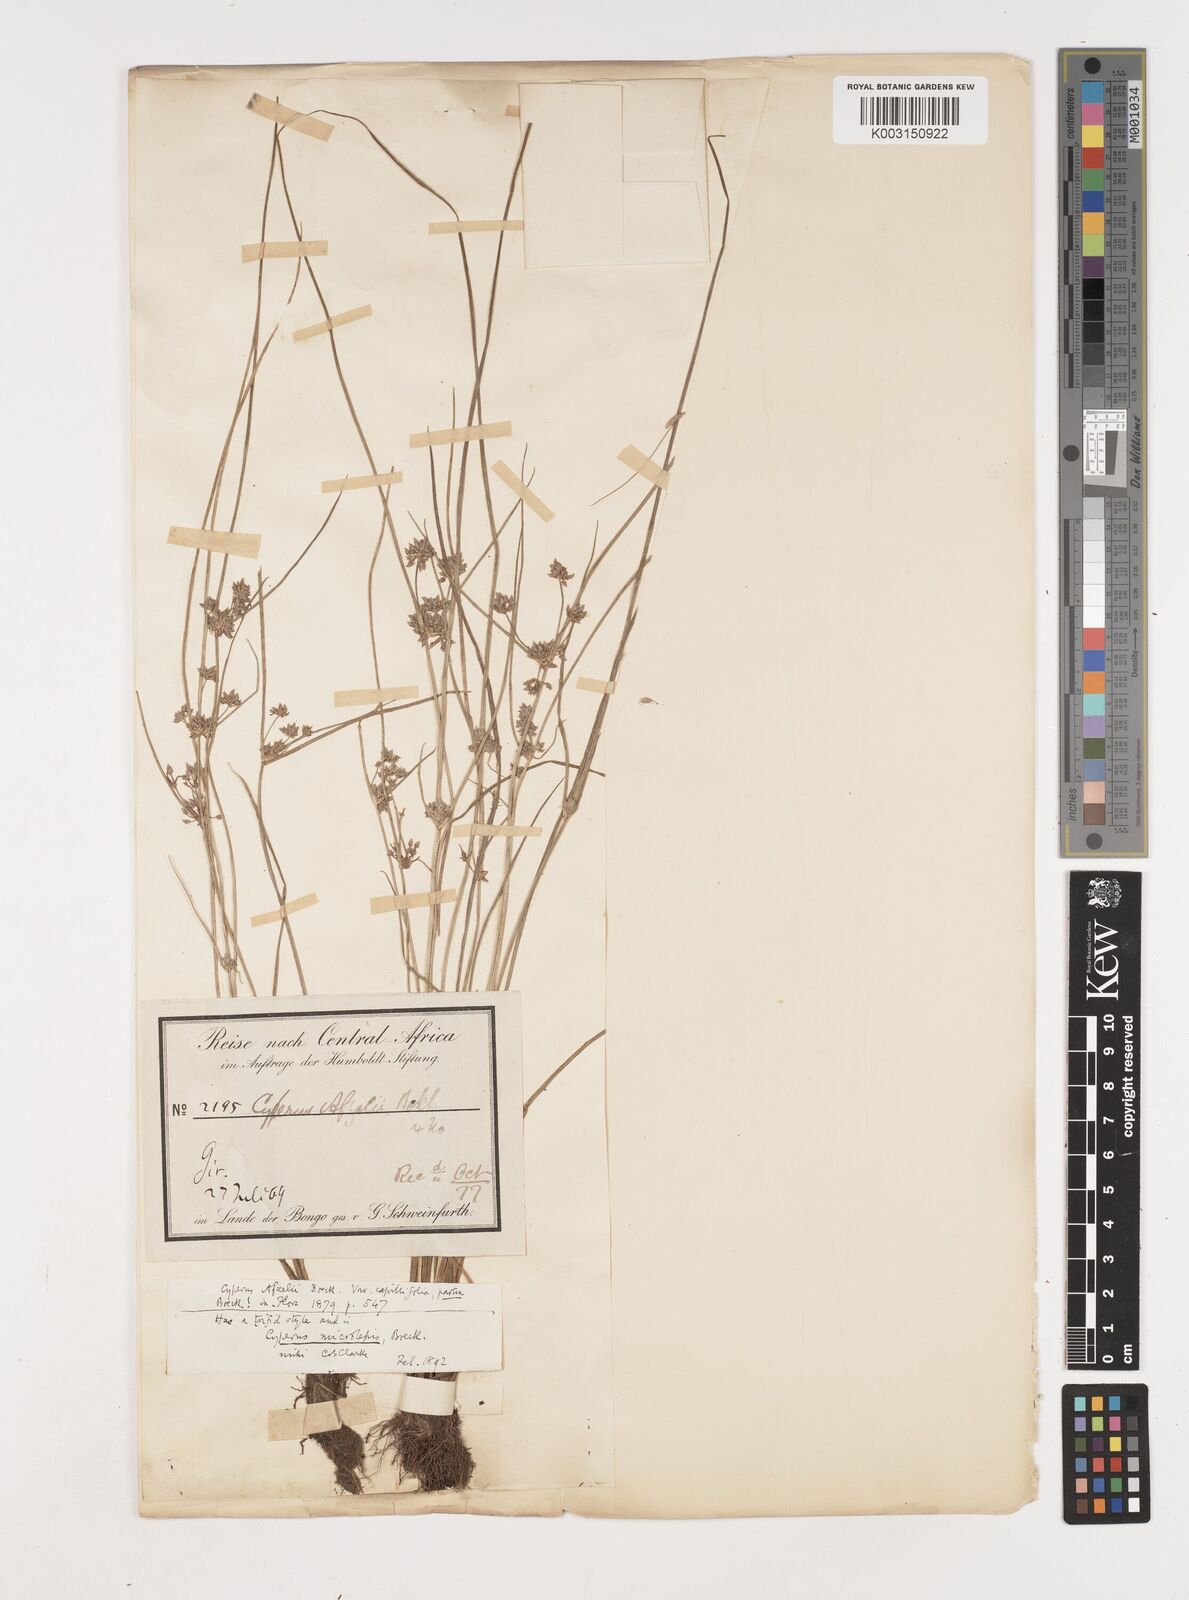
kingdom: Plantae
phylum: Tracheophyta
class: Liliopsida
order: Poales
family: Cyperaceae
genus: Cyperus
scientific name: Cyperus submicrolepis
